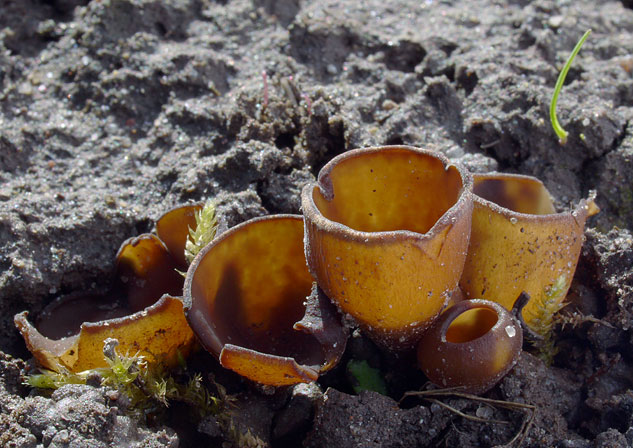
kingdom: Fungi
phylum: Ascomycota
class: Leotiomycetes
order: Helotiales
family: Sclerotiniaceae
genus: Dumontinia
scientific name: Dumontinia tuberosa
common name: anemone-knoldskive
